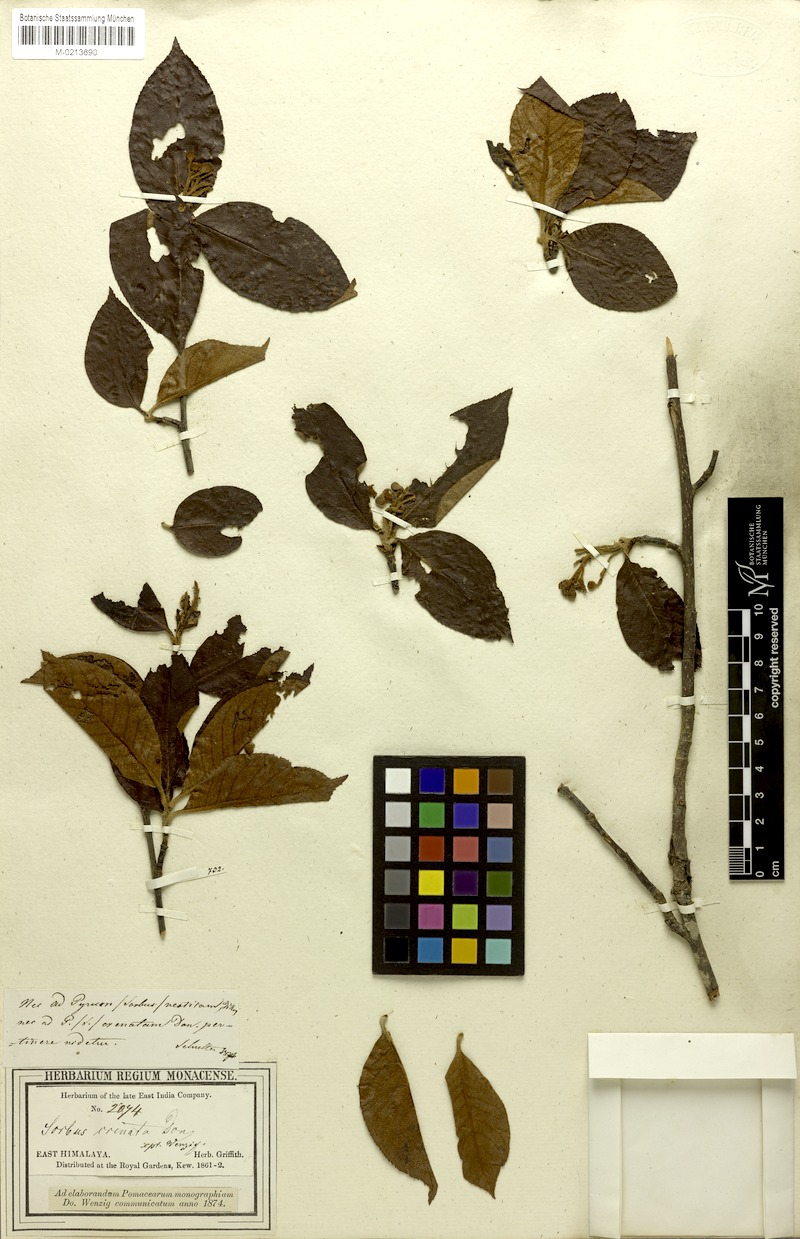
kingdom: Plantae
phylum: Tracheophyta
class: Magnoliopsida
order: Rosales
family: Rosaceae
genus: Sorbus
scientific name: Sorbus vestita
